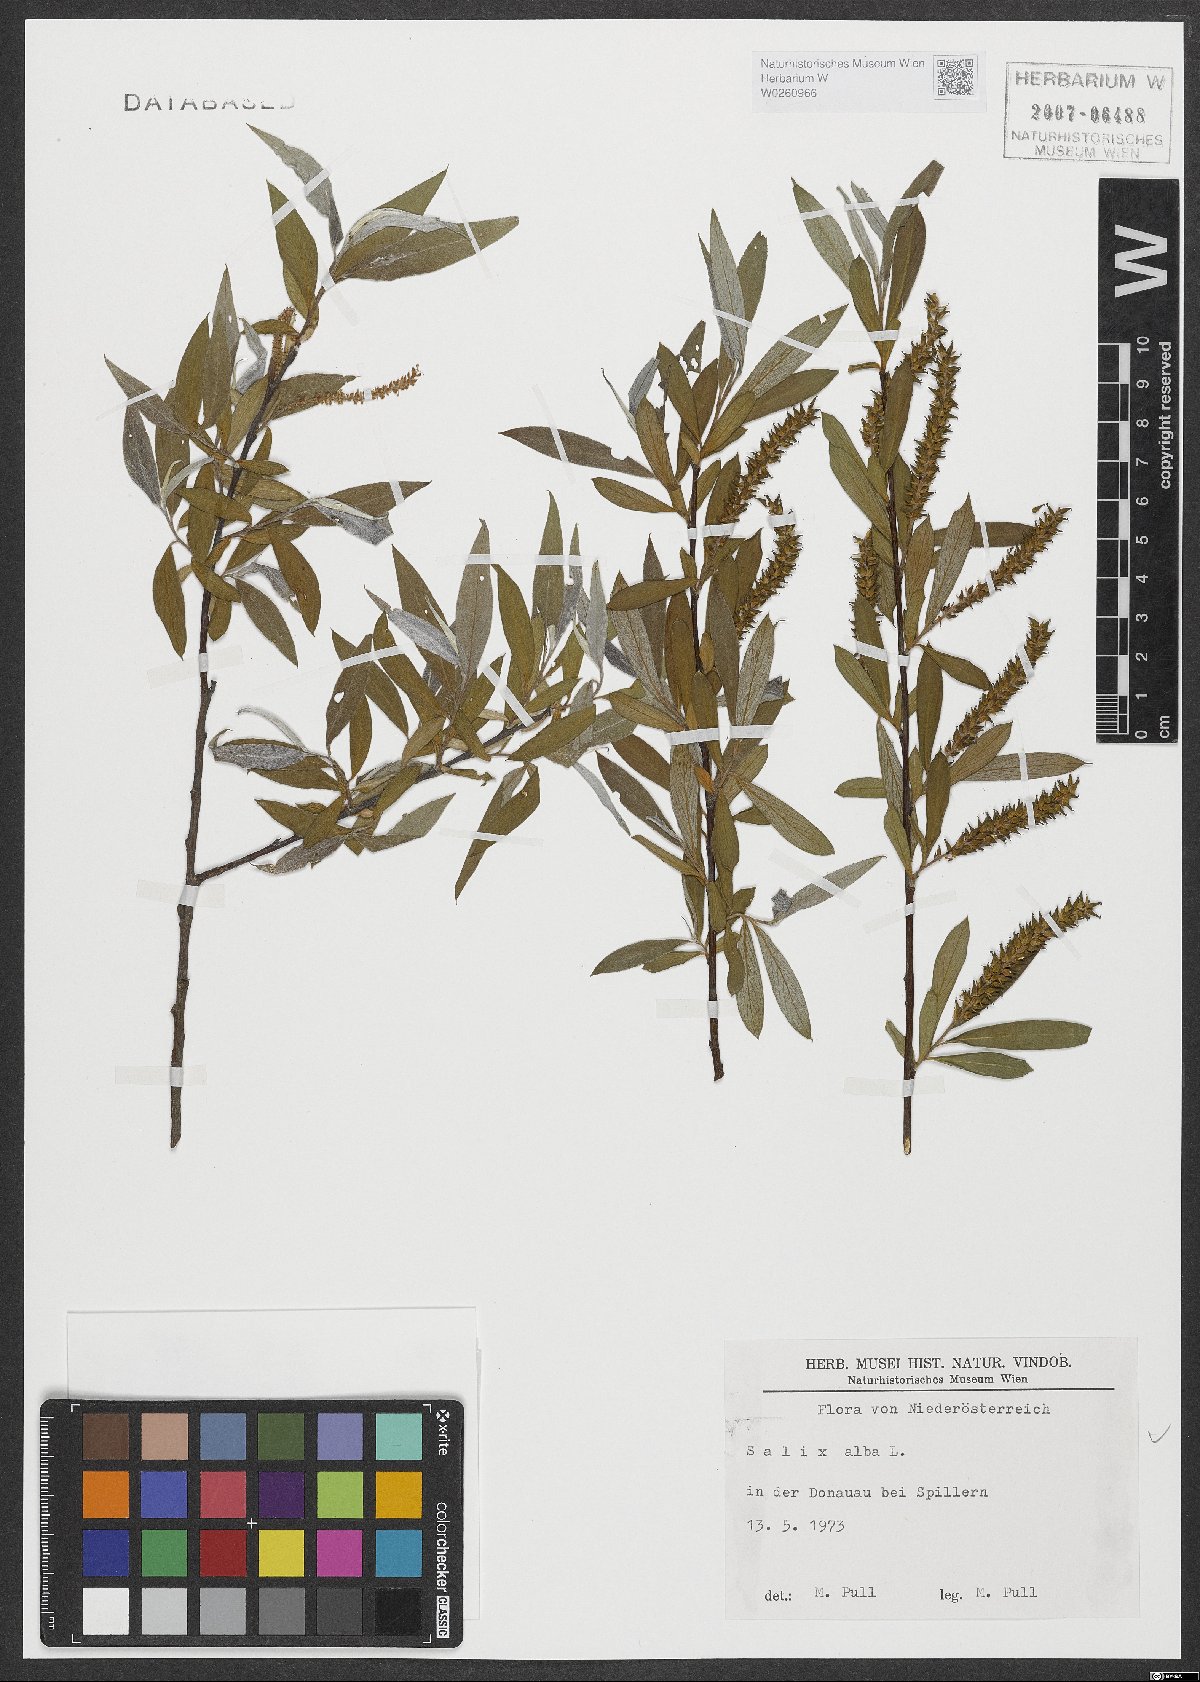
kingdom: Plantae
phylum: Tracheophyta
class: Magnoliopsida
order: Malpighiales
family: Salicaceae
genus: Salix
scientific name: Salix alba
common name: White willow
